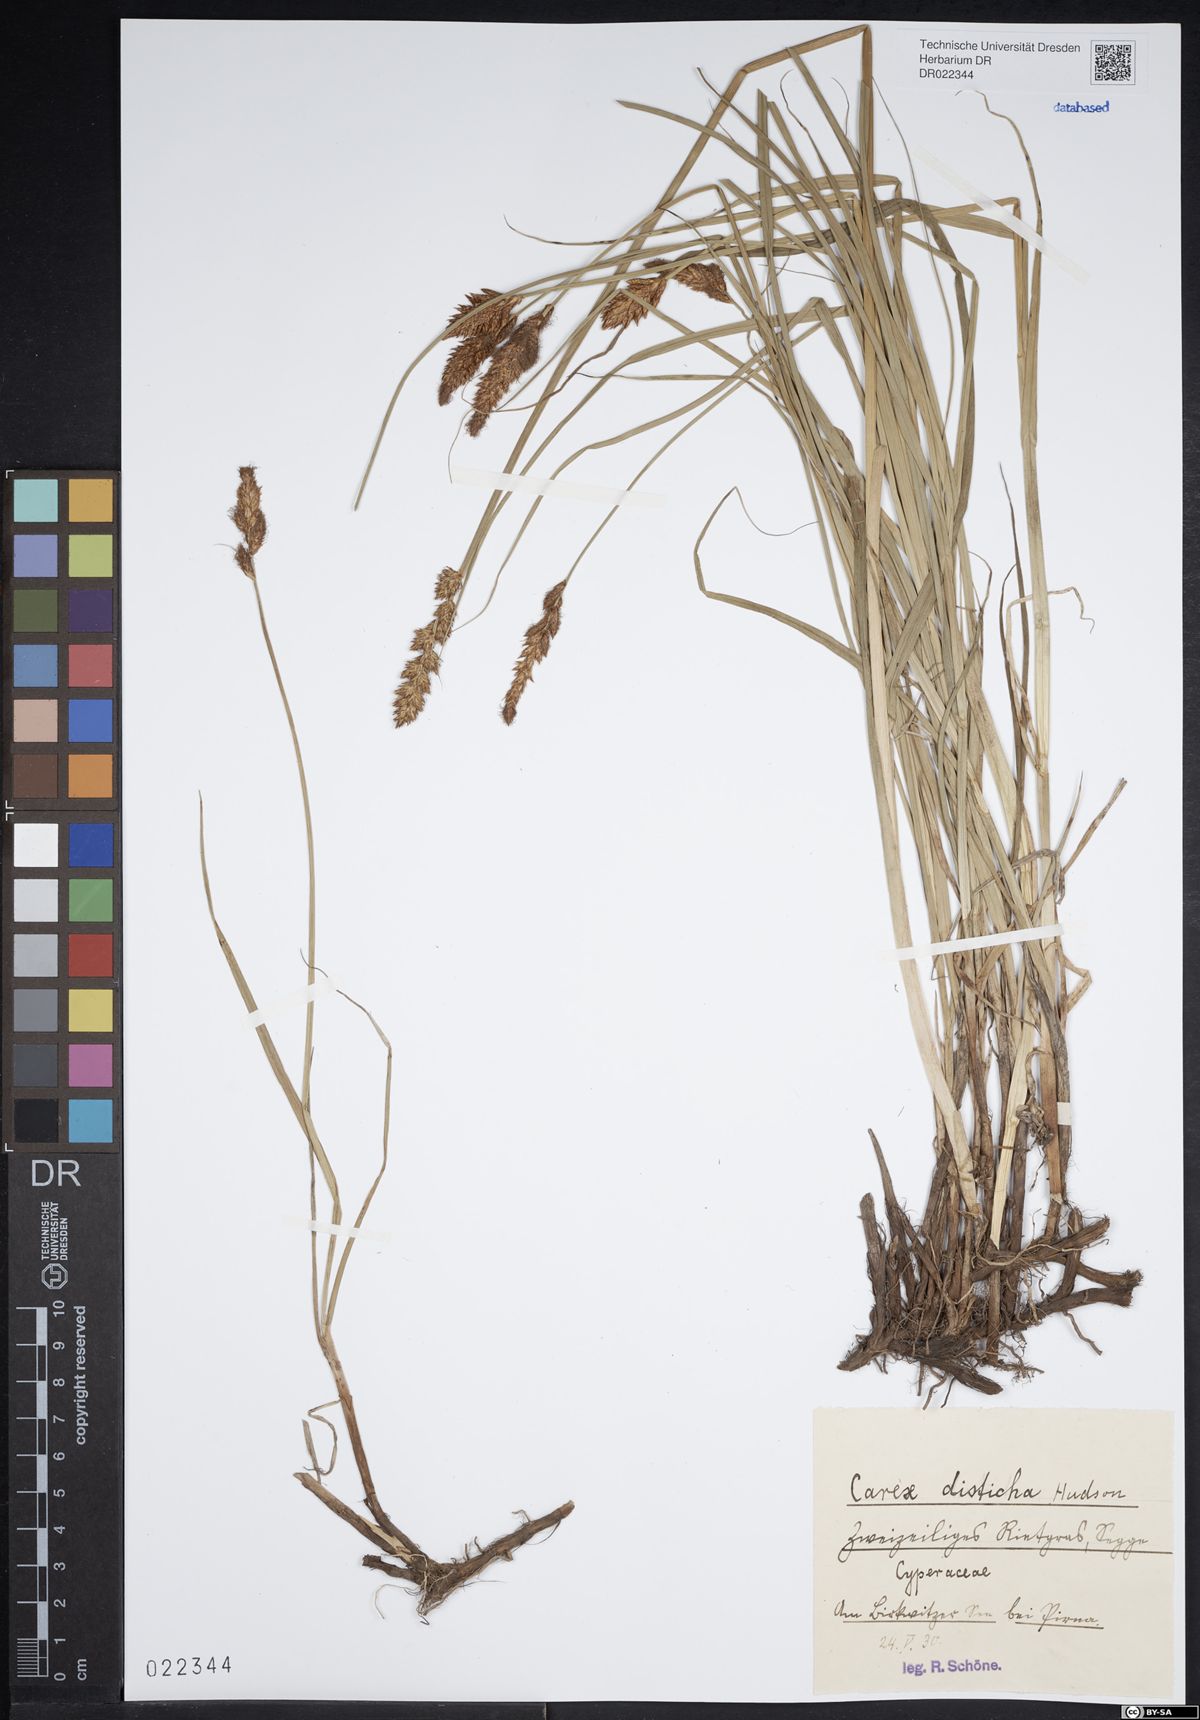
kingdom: Plantae
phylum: Tracheophyta
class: Liliopsida
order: Poales
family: Cyperaceae
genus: Carex
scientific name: Carex disticha
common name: Brown sedge
